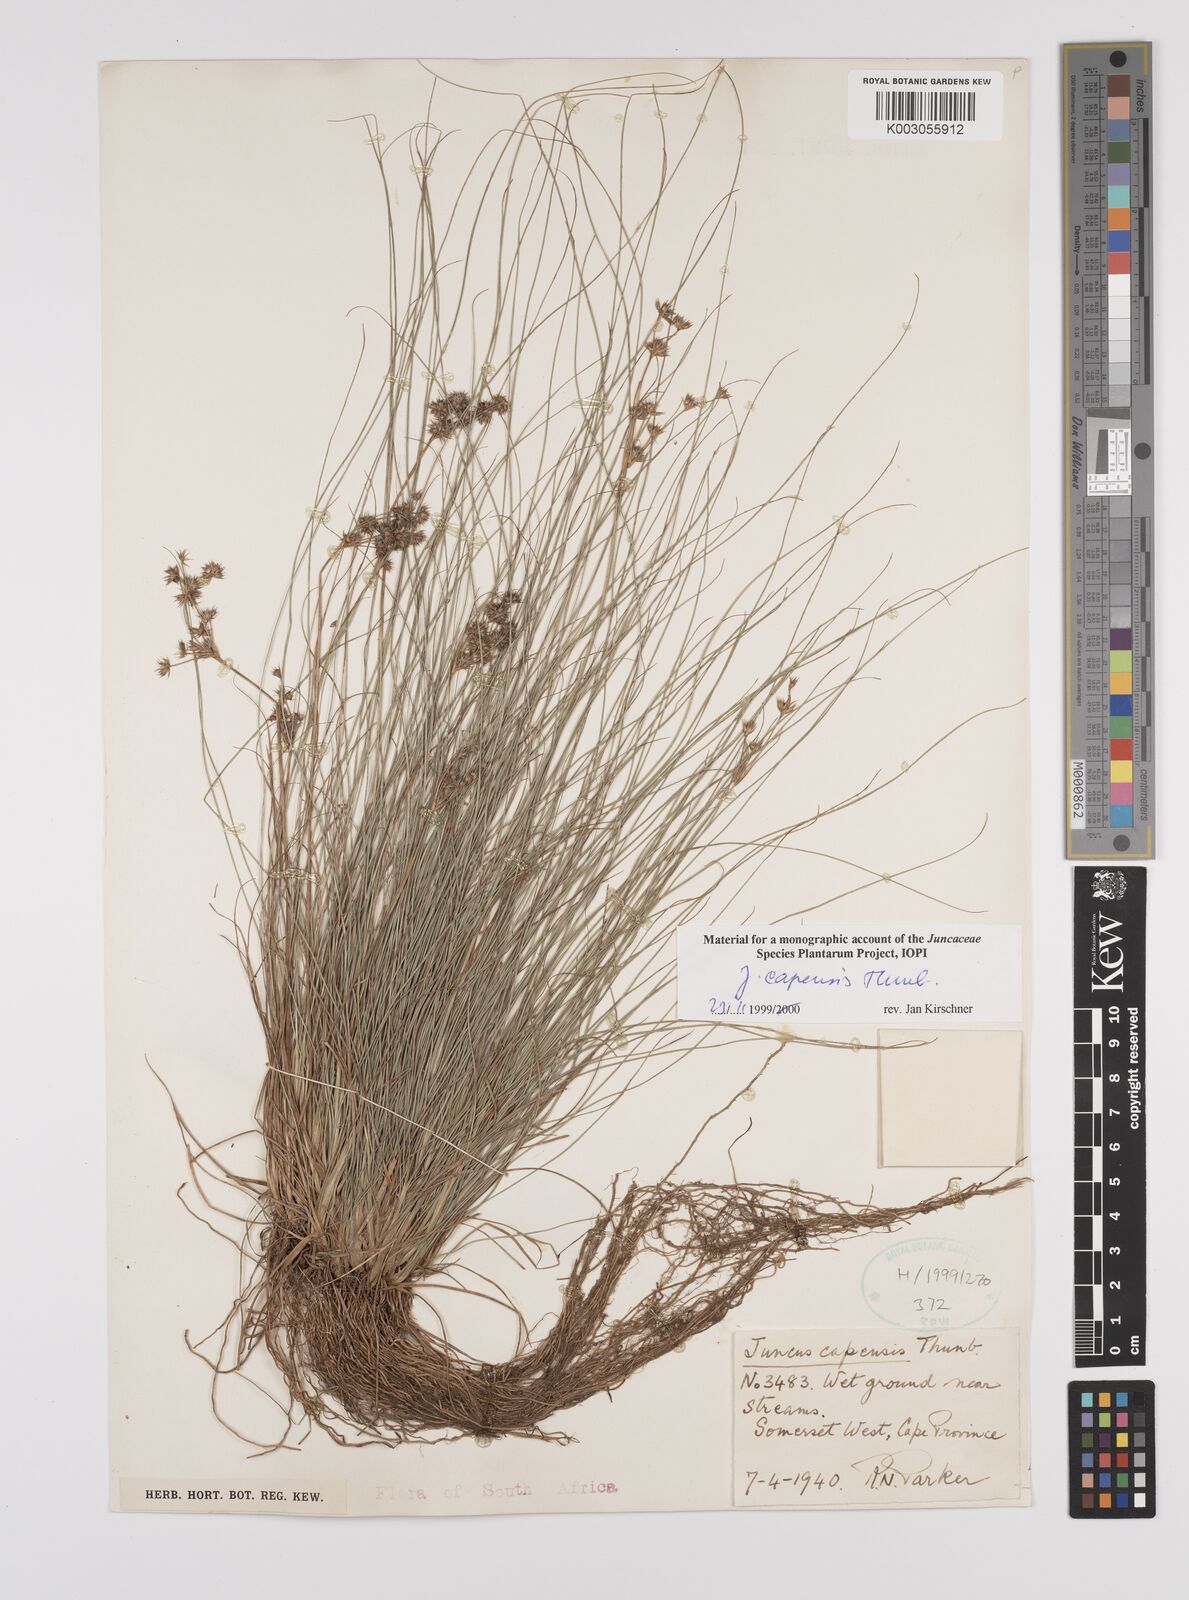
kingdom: Plantae
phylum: Tracheophyta
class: Liliopsida
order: Poales
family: Juncaceae
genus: Juncus
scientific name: Juncus capensis
